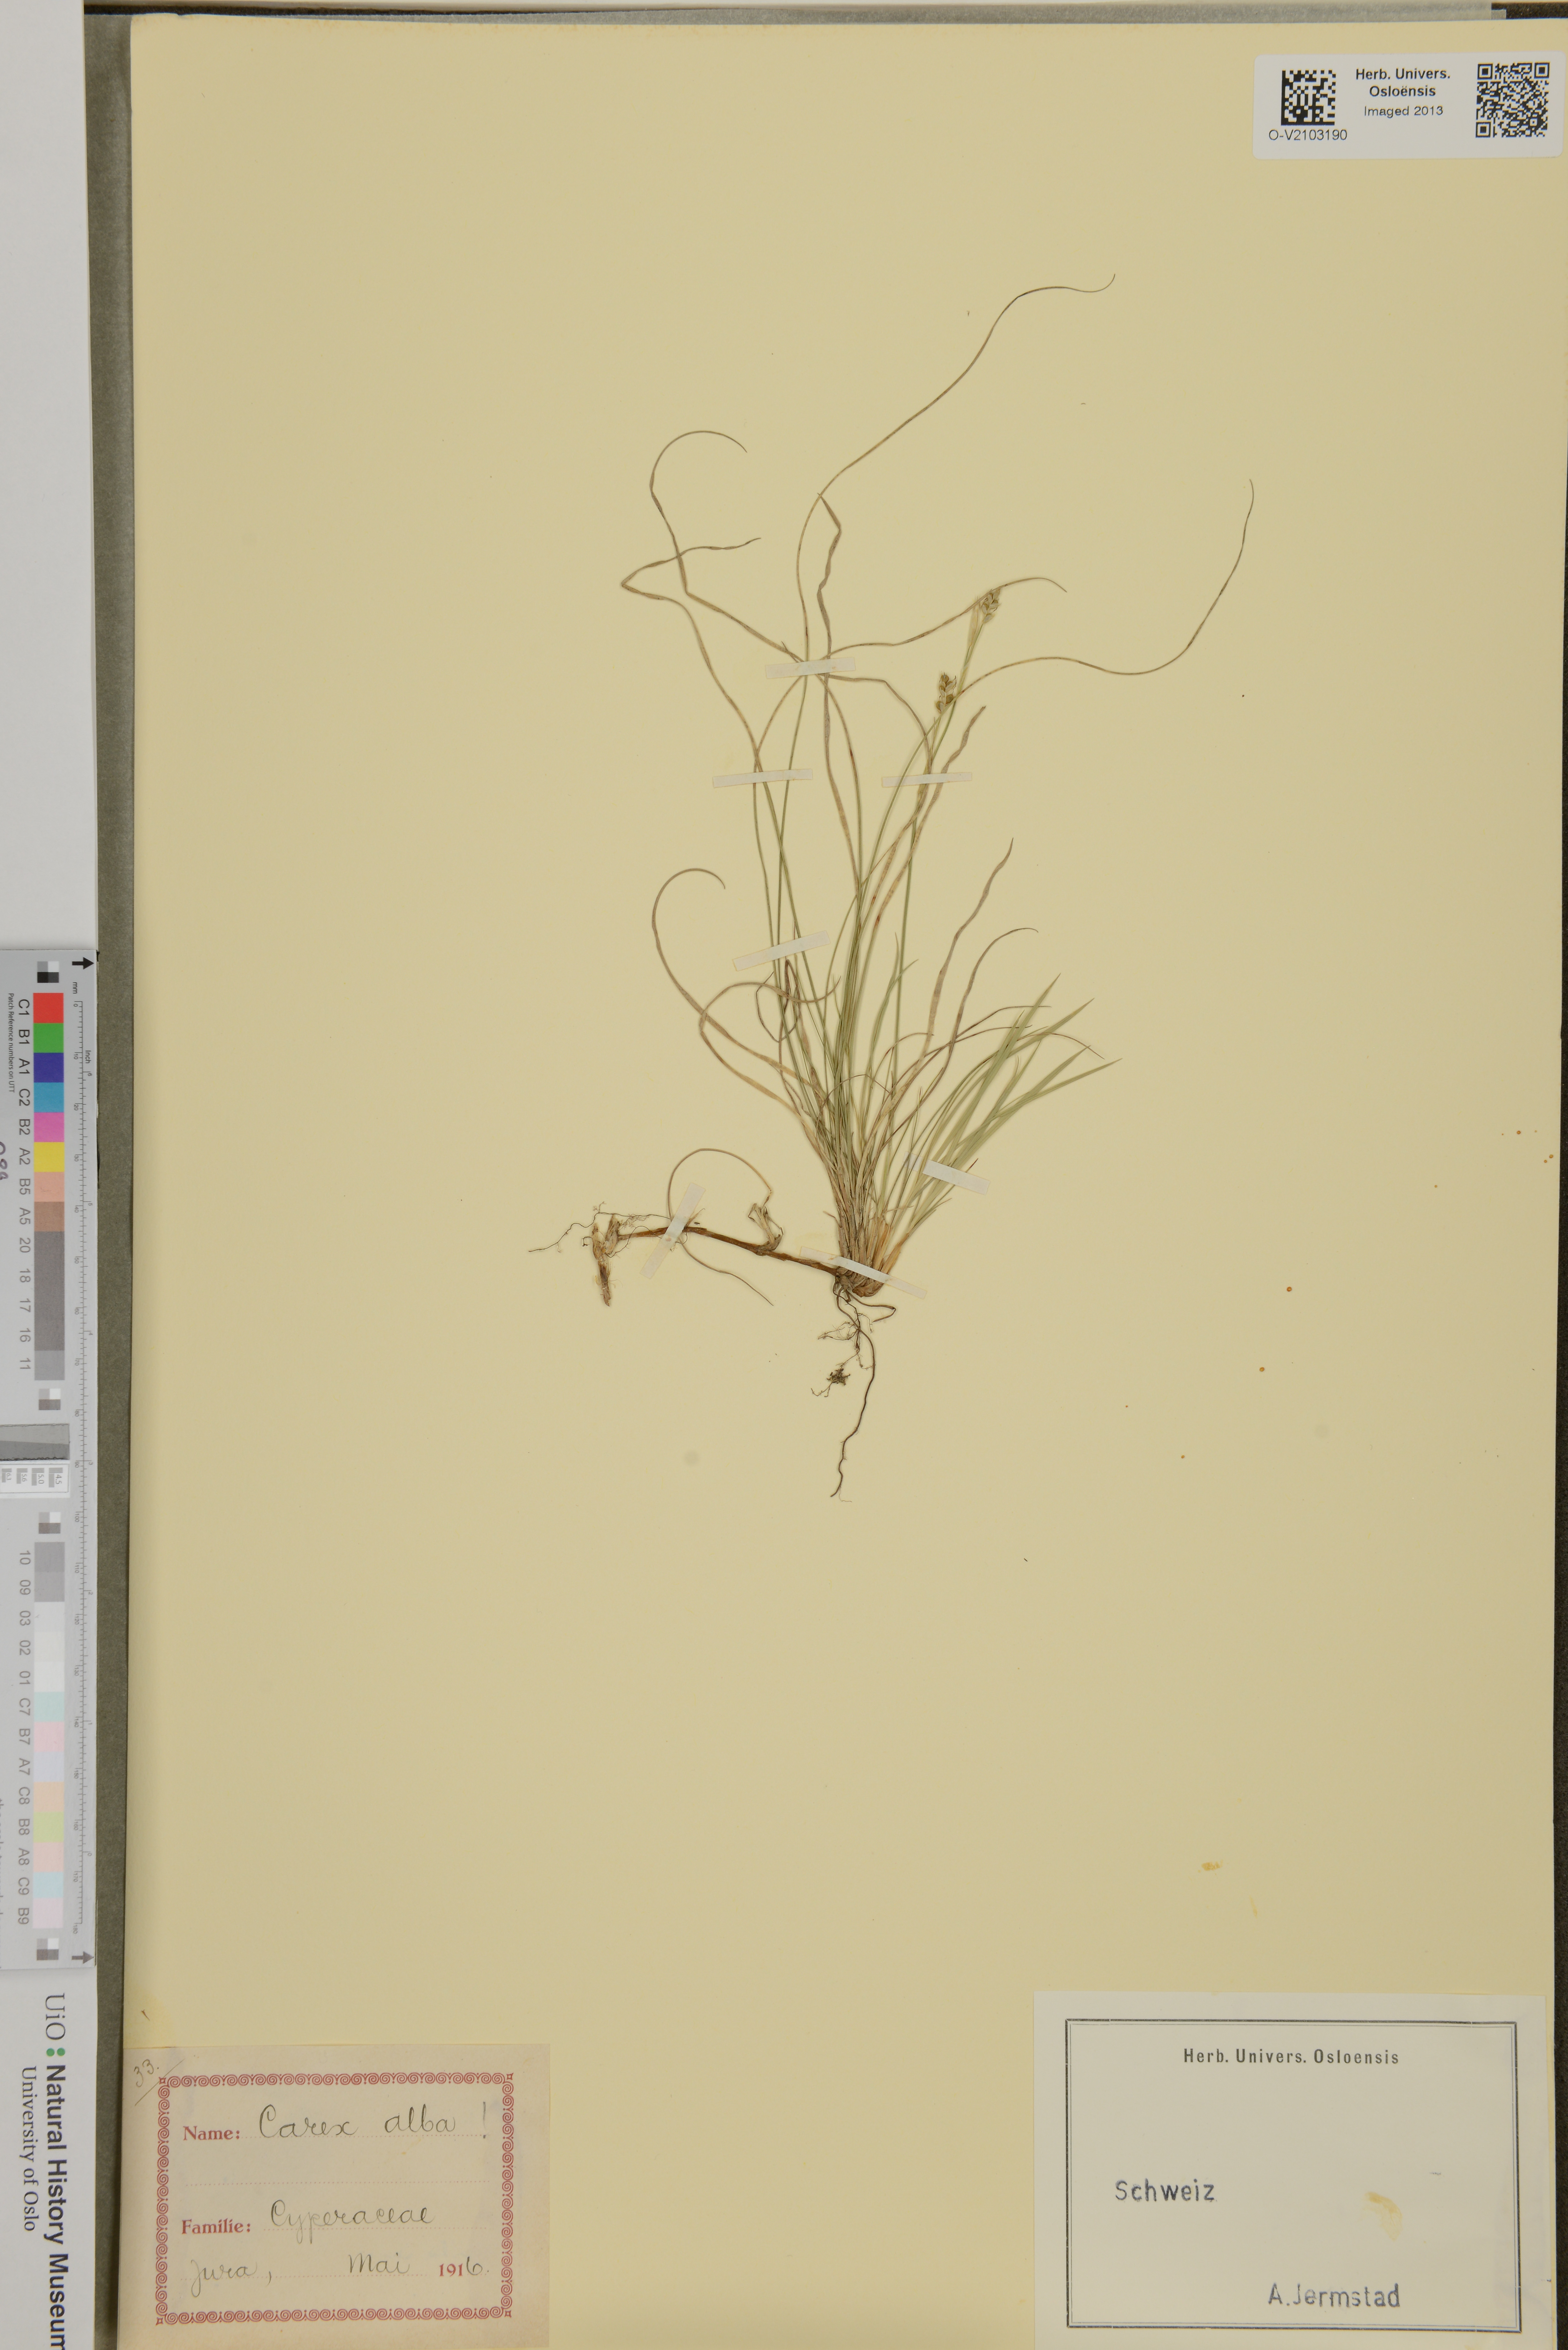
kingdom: Plantae
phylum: Tracheophyta
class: Liliopsida
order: Poales
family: Cyperaceae
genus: Carex
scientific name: Carex alba
